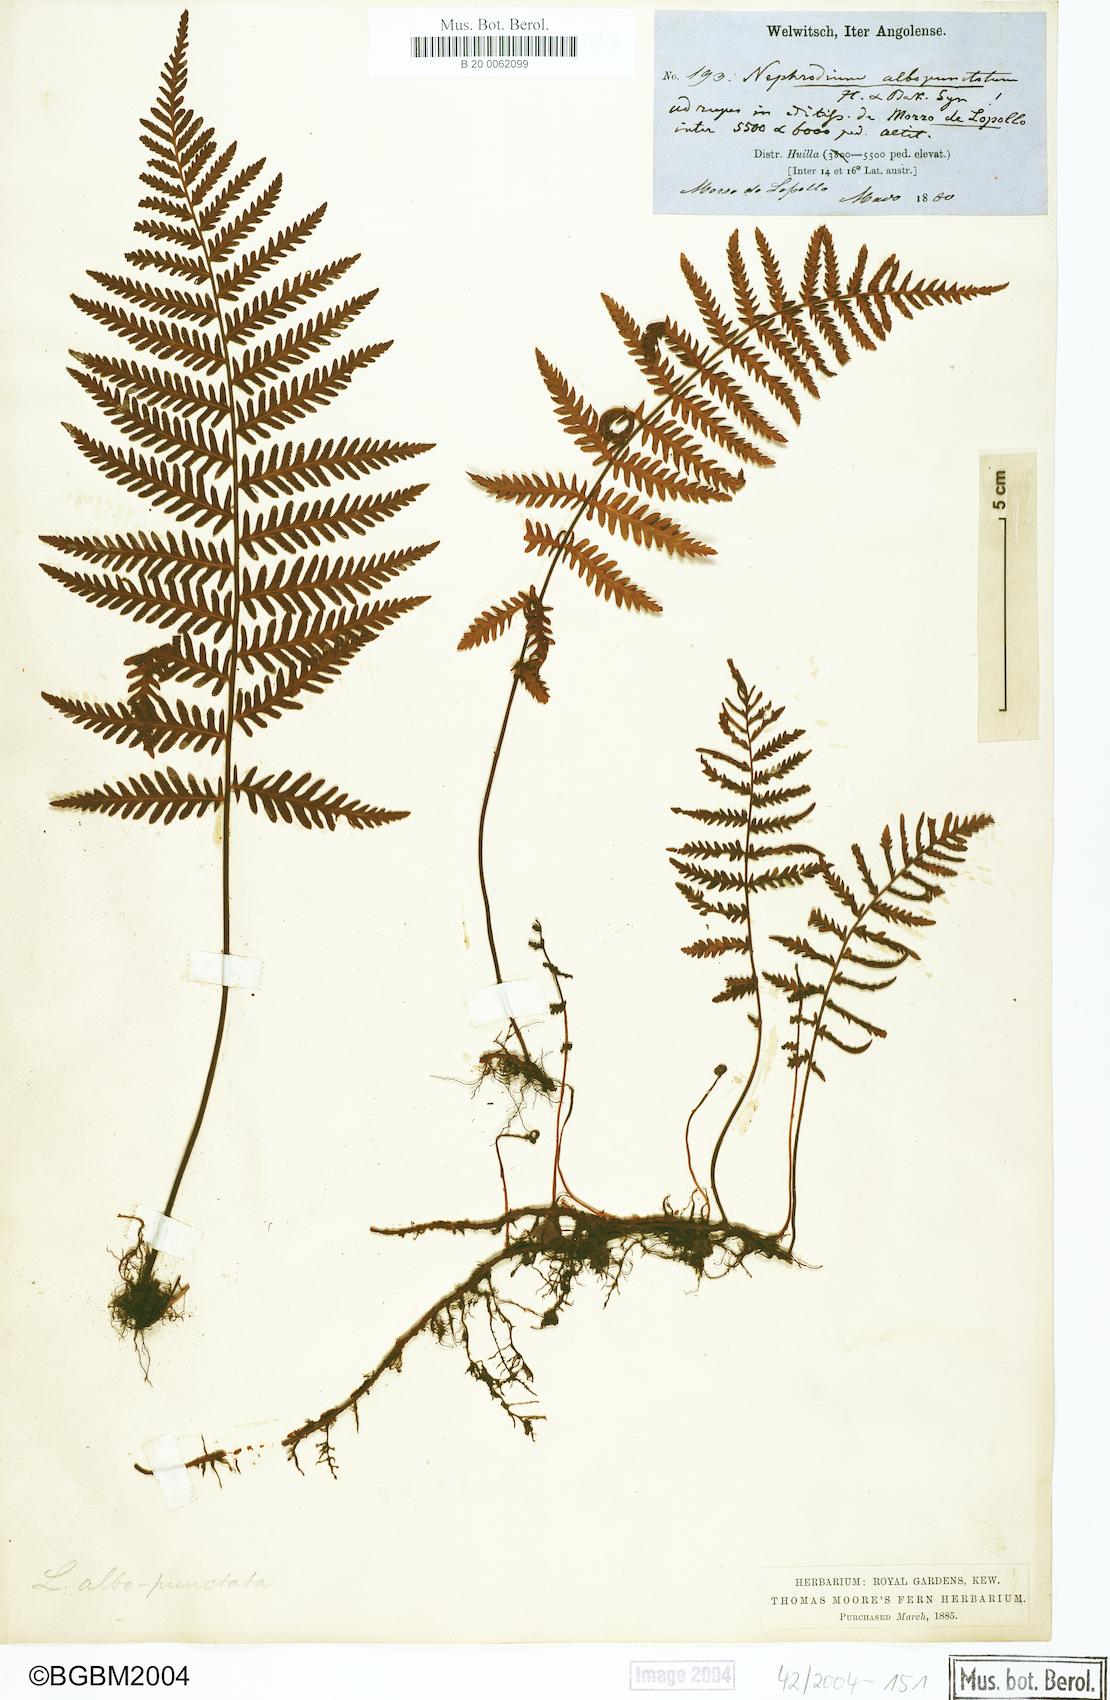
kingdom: Plantae
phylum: Tracheophyta
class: Polypodiopsida
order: Polypodiales
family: Tectariaceae
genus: Arthropteris
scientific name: Arthropteris orientalis
